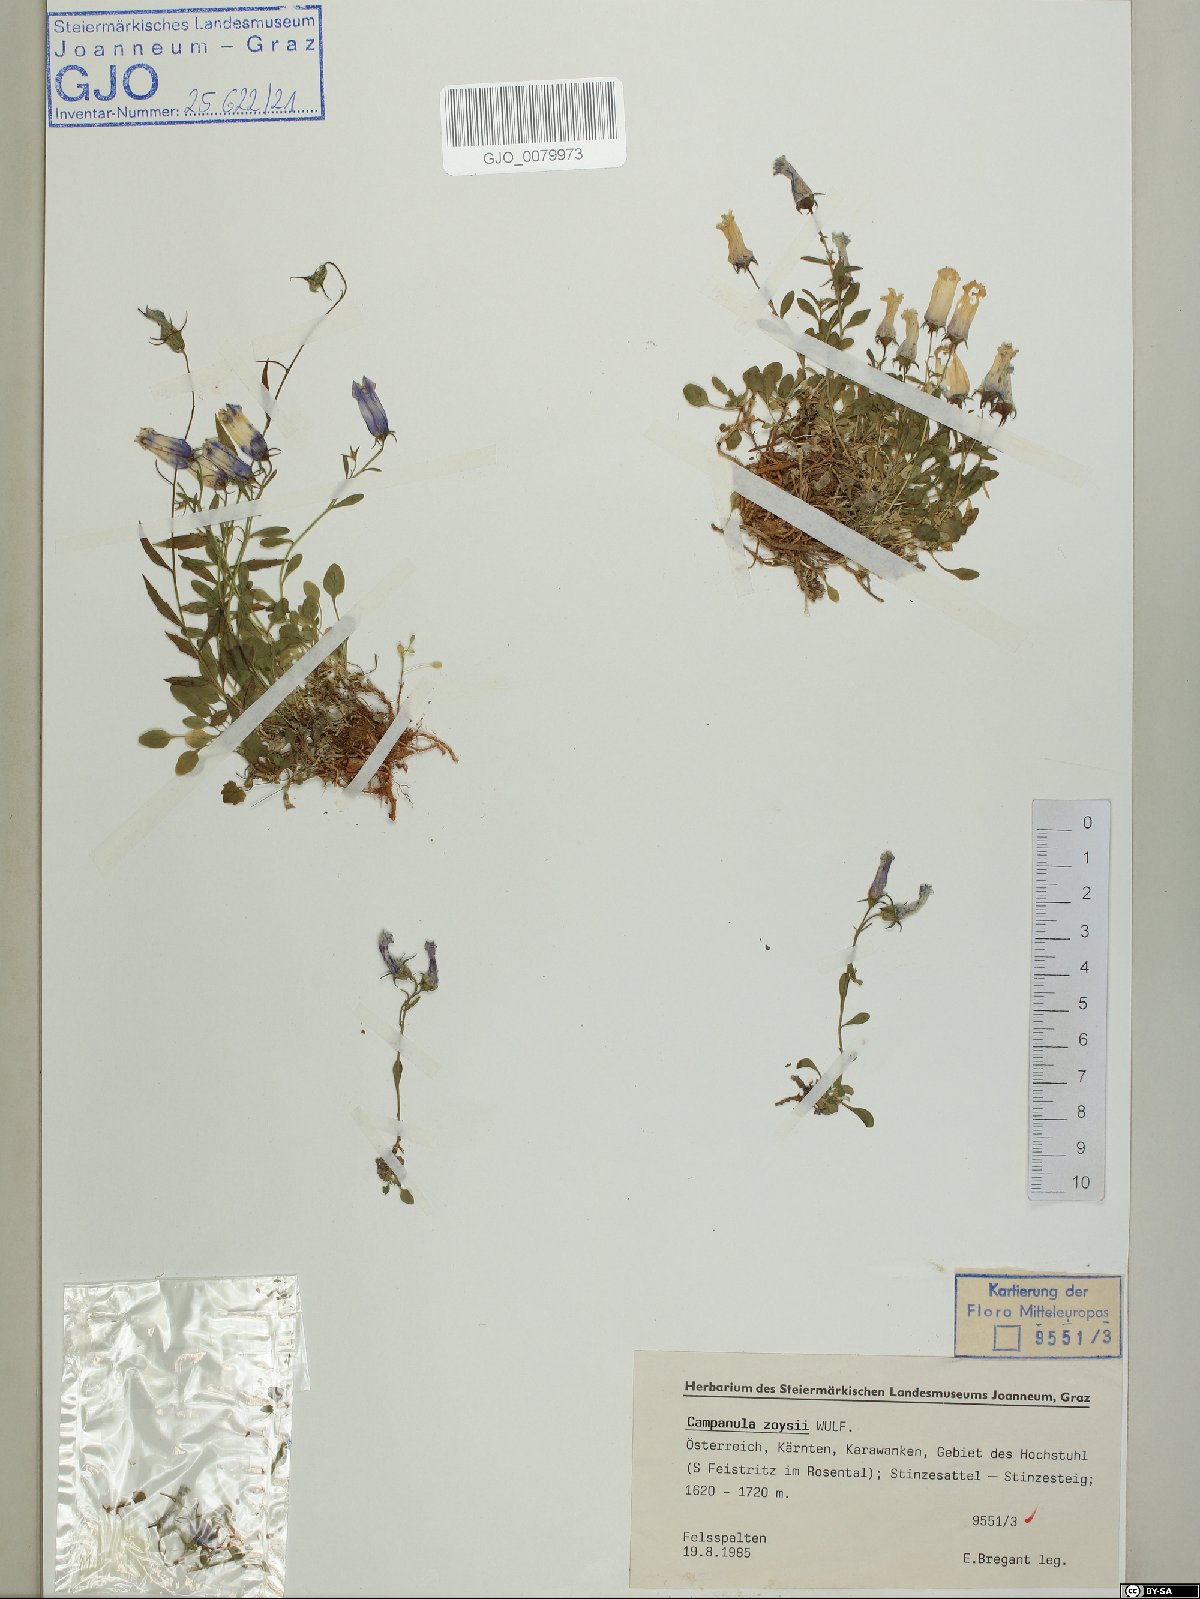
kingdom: Plantae
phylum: Tracheophyta
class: Magnoliopsida
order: Asterales
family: Campanulaceae
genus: Favratia
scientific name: Favratia zoysii
